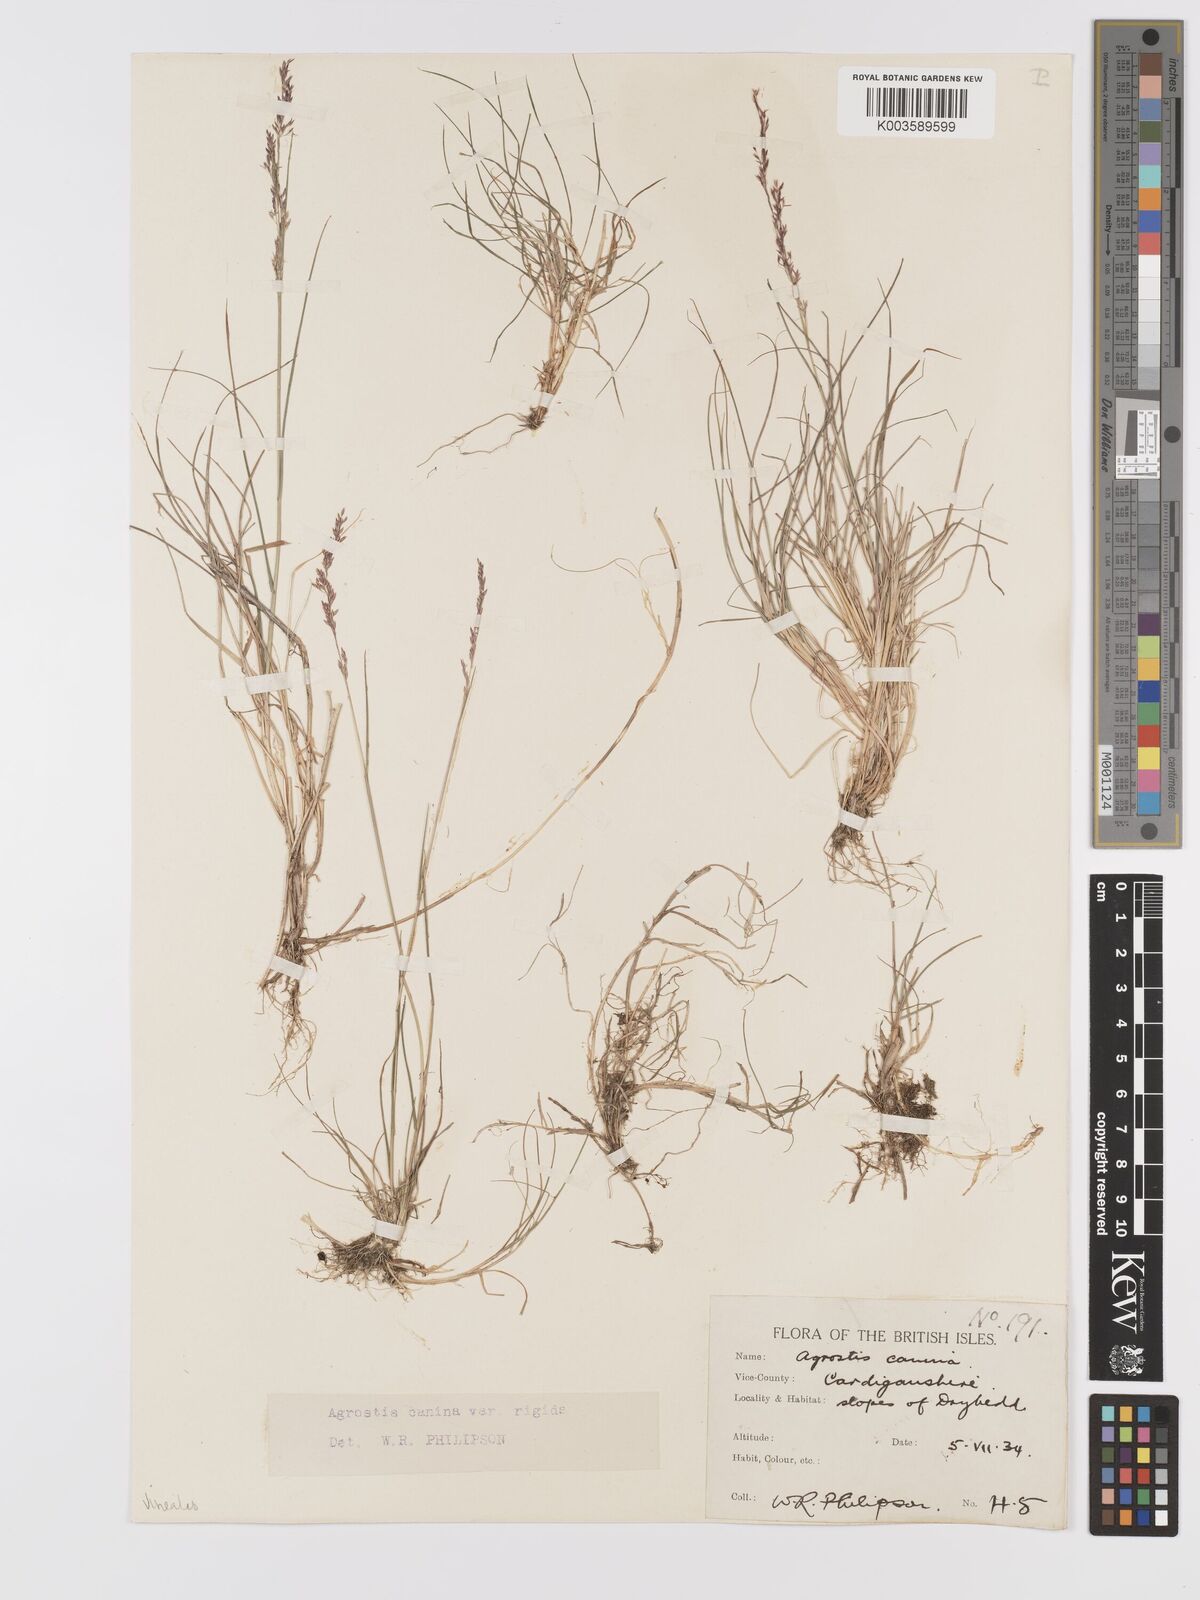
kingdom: Plantae
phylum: Tracheophyta
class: Liliopsida
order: Poales
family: Poaceae
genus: Agrostis
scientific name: Agrostis
